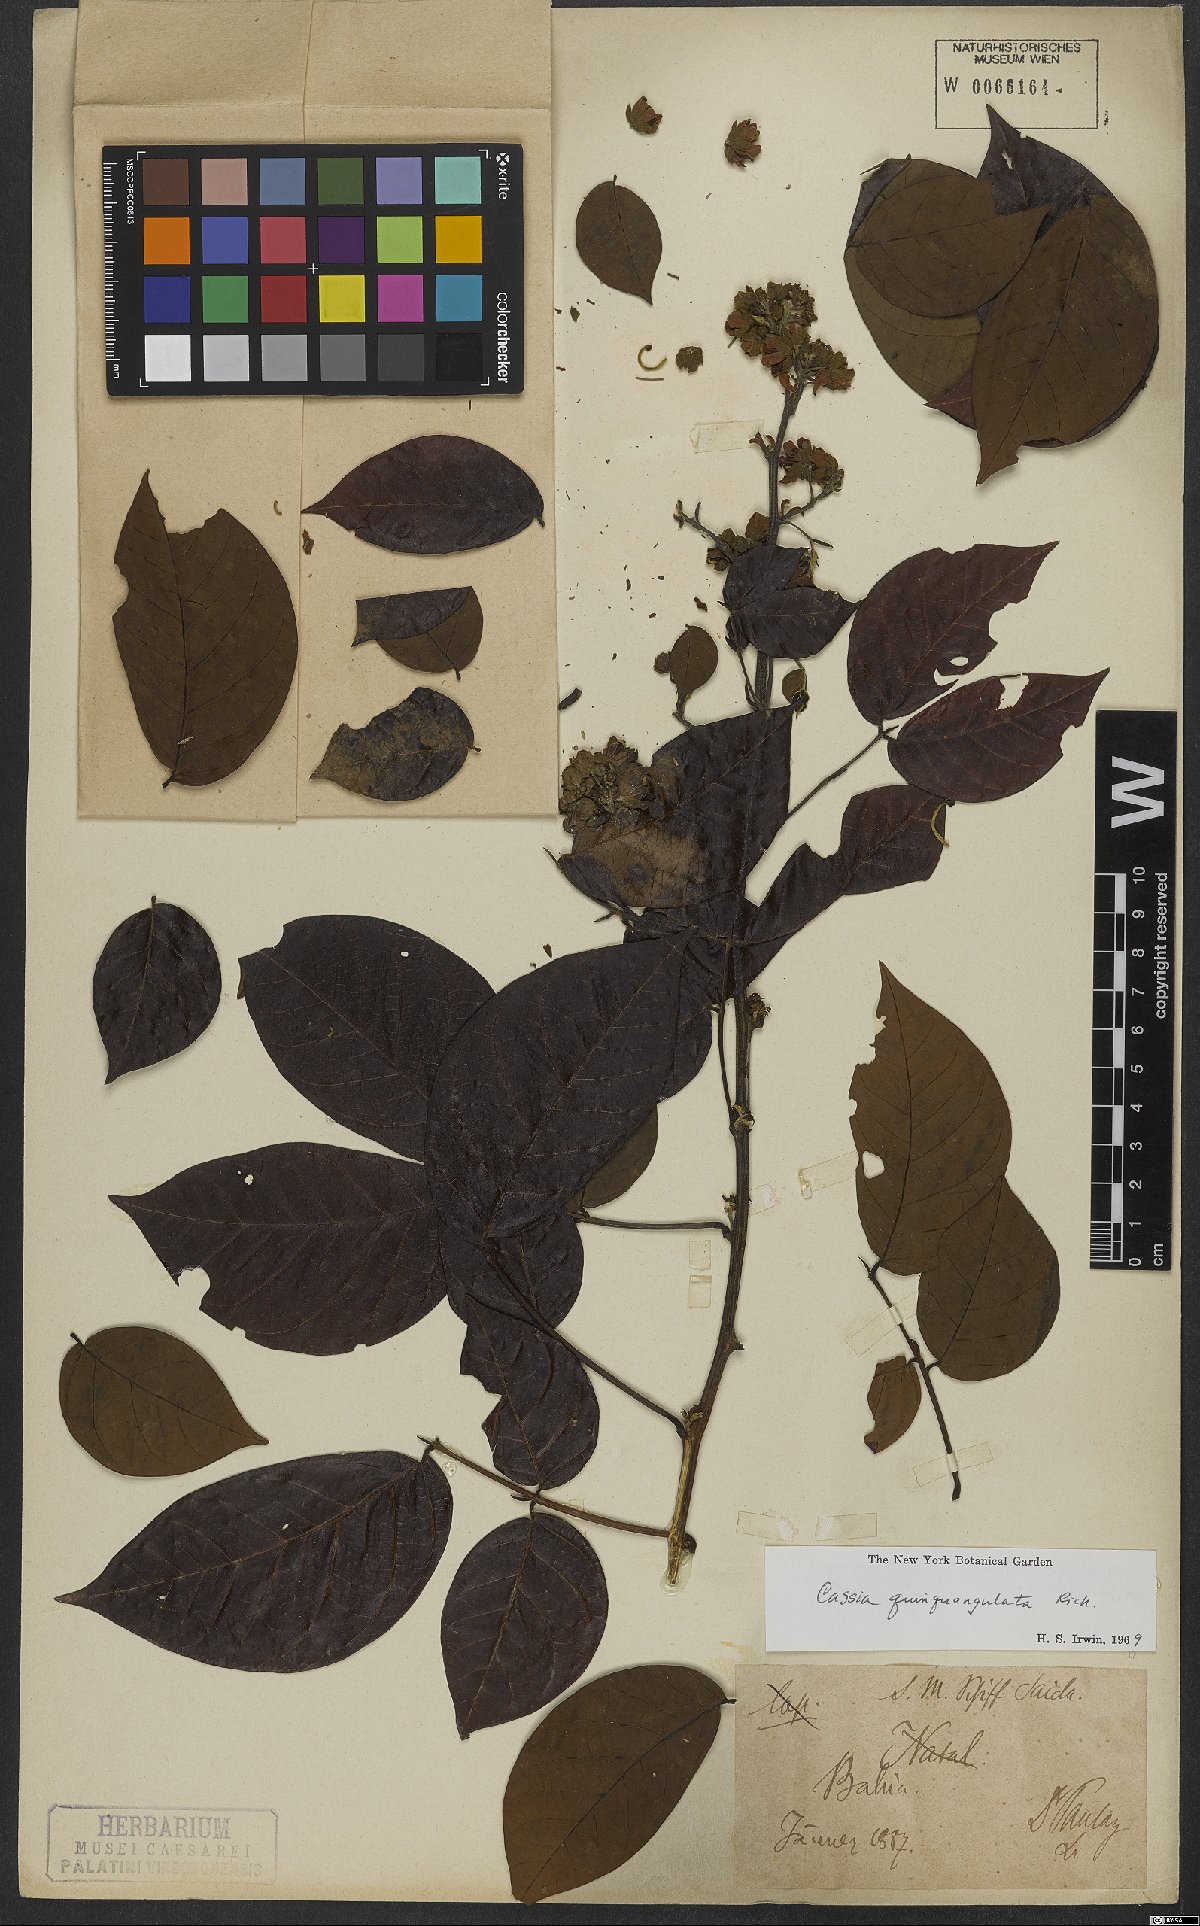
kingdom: Plantae
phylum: Tracheophyta
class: Magnoliopsida
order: Fabales
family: Fabaceae
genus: Senna
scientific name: Senna quinquangulata
